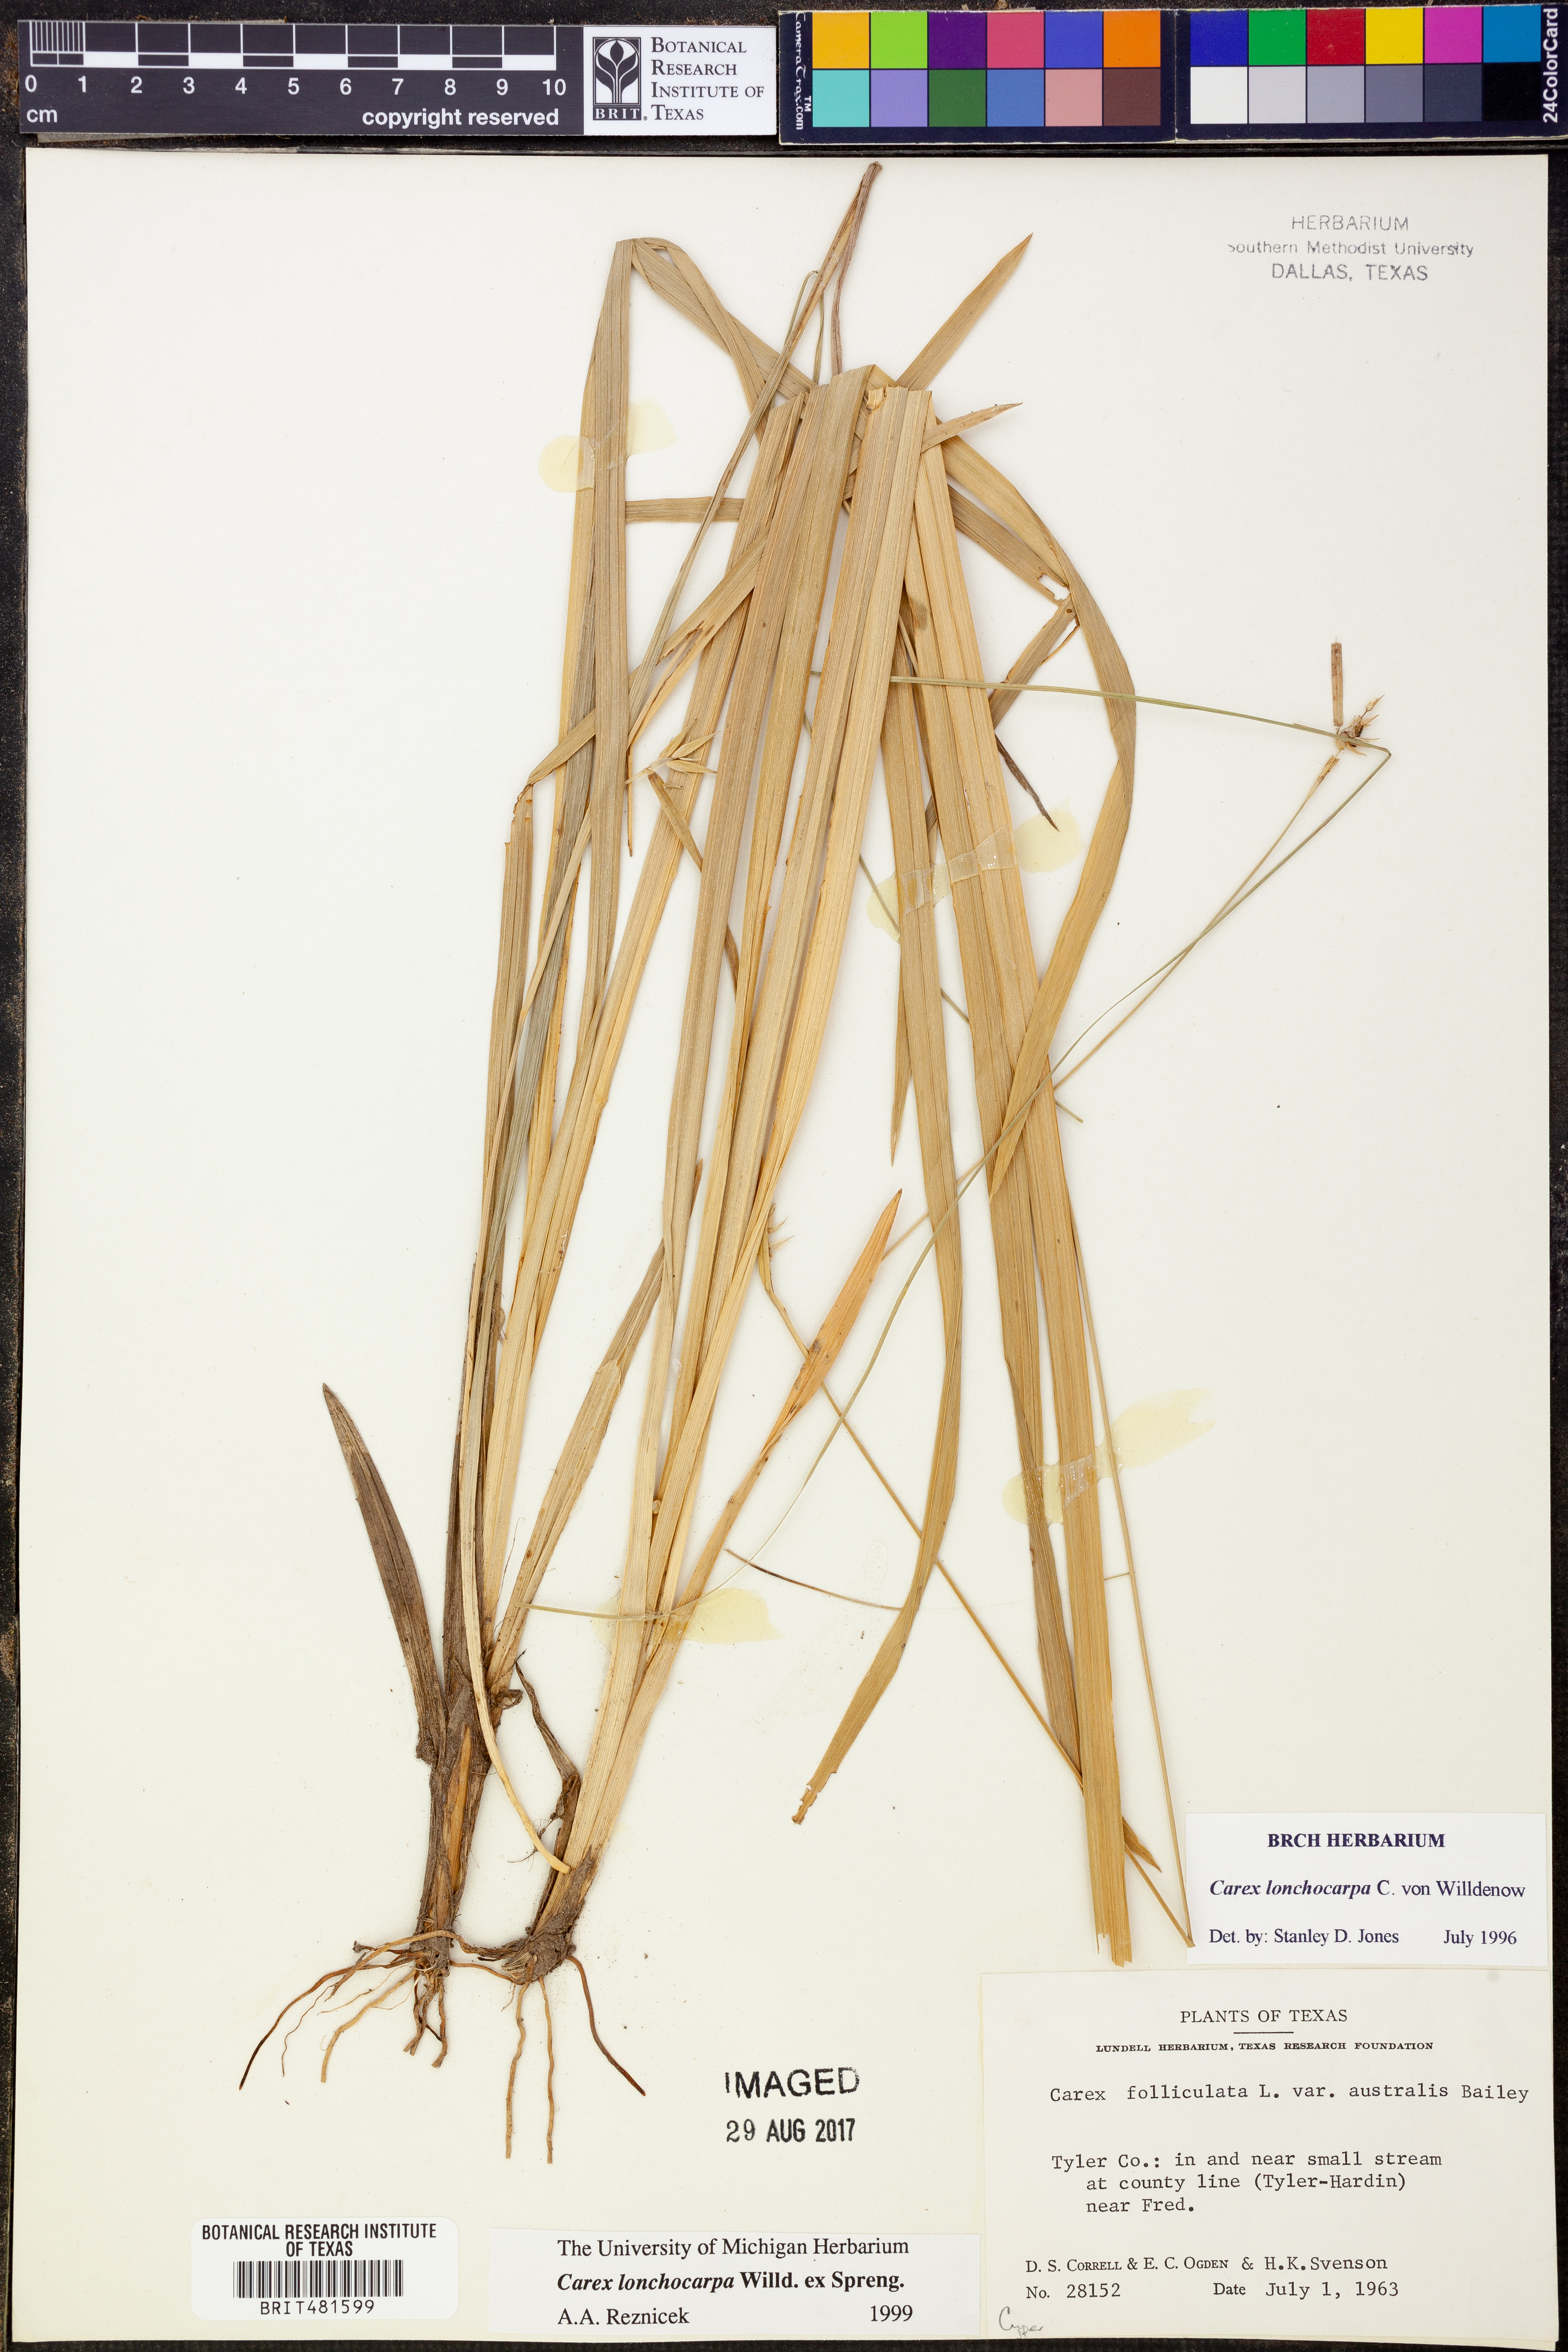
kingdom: Plantae
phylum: Tracheophyta
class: Liliopsida
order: Poales
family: Cyperaceae
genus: Carex
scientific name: Carex lonchocarpa
